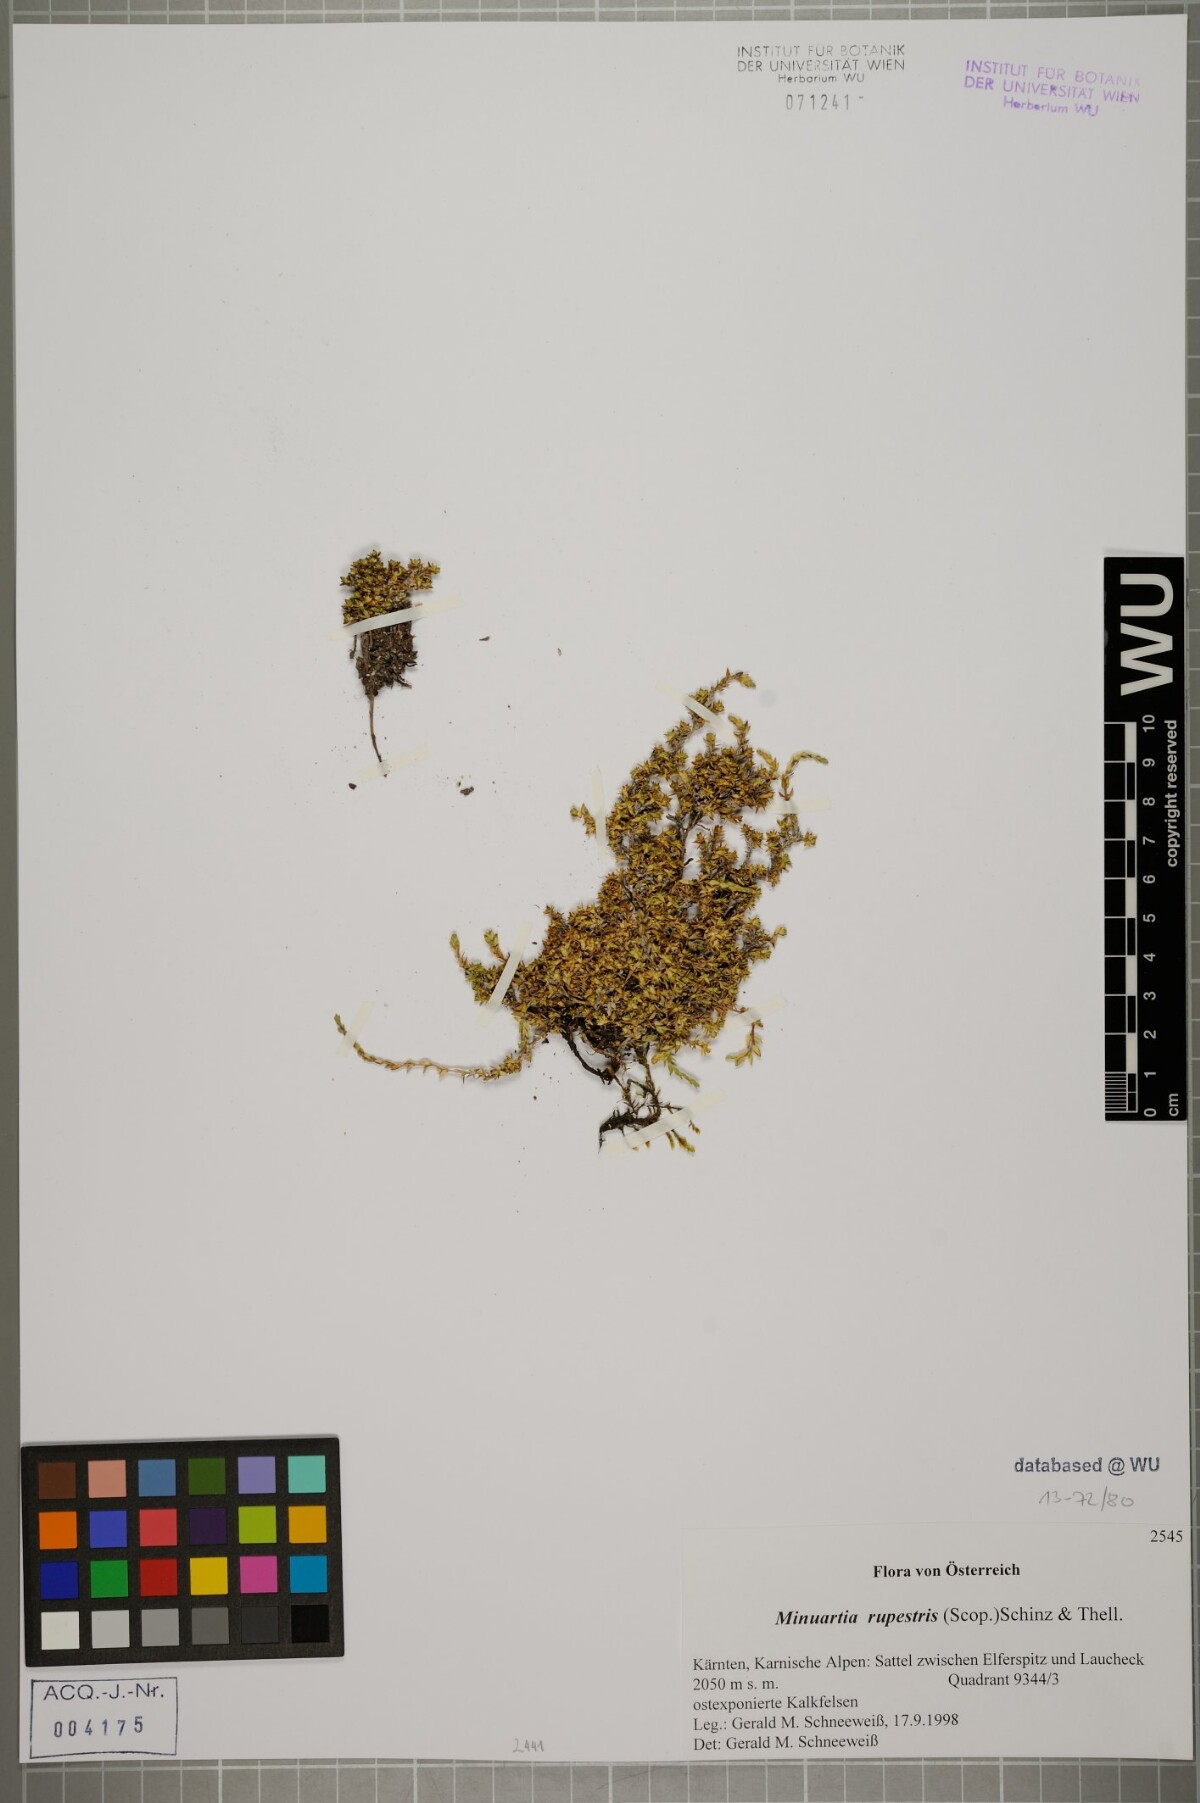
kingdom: Plantae
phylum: Tracheophyta
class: Magnoliopsida
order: Caryophyllales
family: Caryophyllaceae
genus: Facchinia
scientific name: Facchinia rupestris
